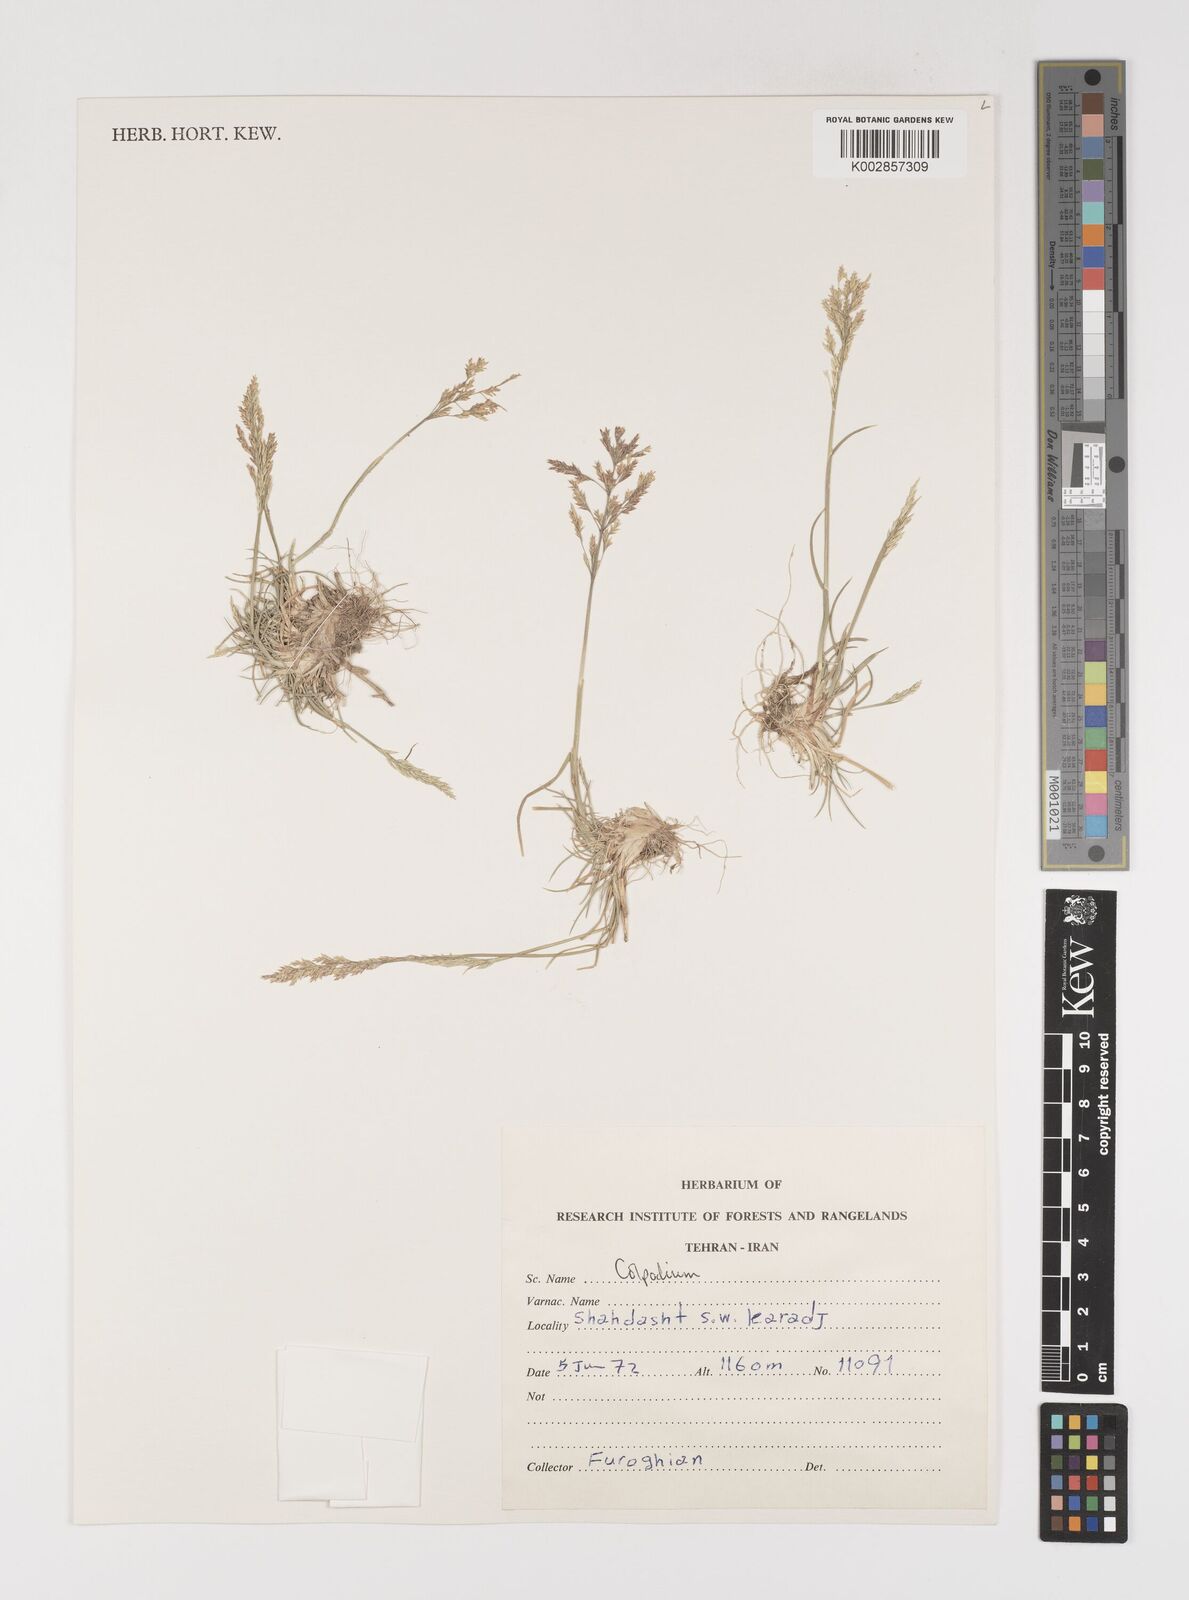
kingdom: Plantae
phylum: Tracheophyta
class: Liliopsida
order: Poales
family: Poaceae
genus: Puccinellia
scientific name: Puccinellia
